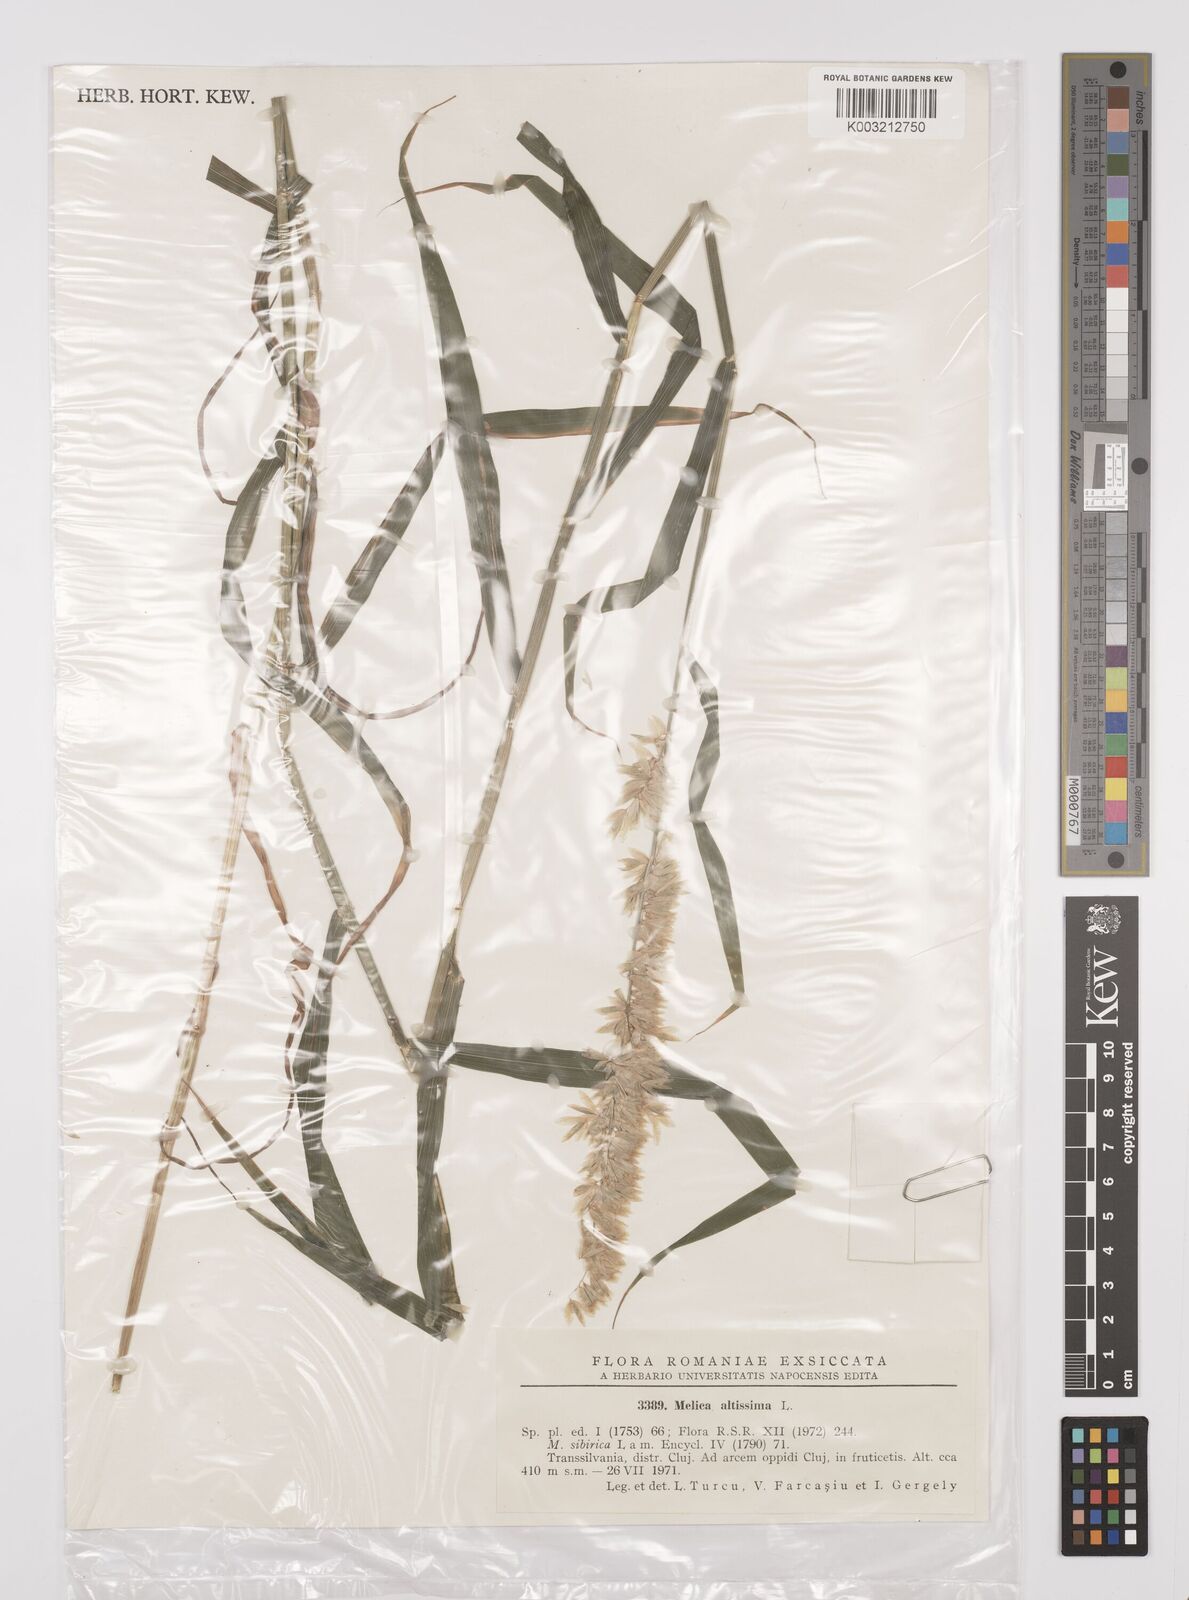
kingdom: Plantae
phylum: Tracheophyta
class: Liliopsida
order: Poales
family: Poaceae
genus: Melica
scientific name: Melica altissima
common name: Siberian melicgrass
